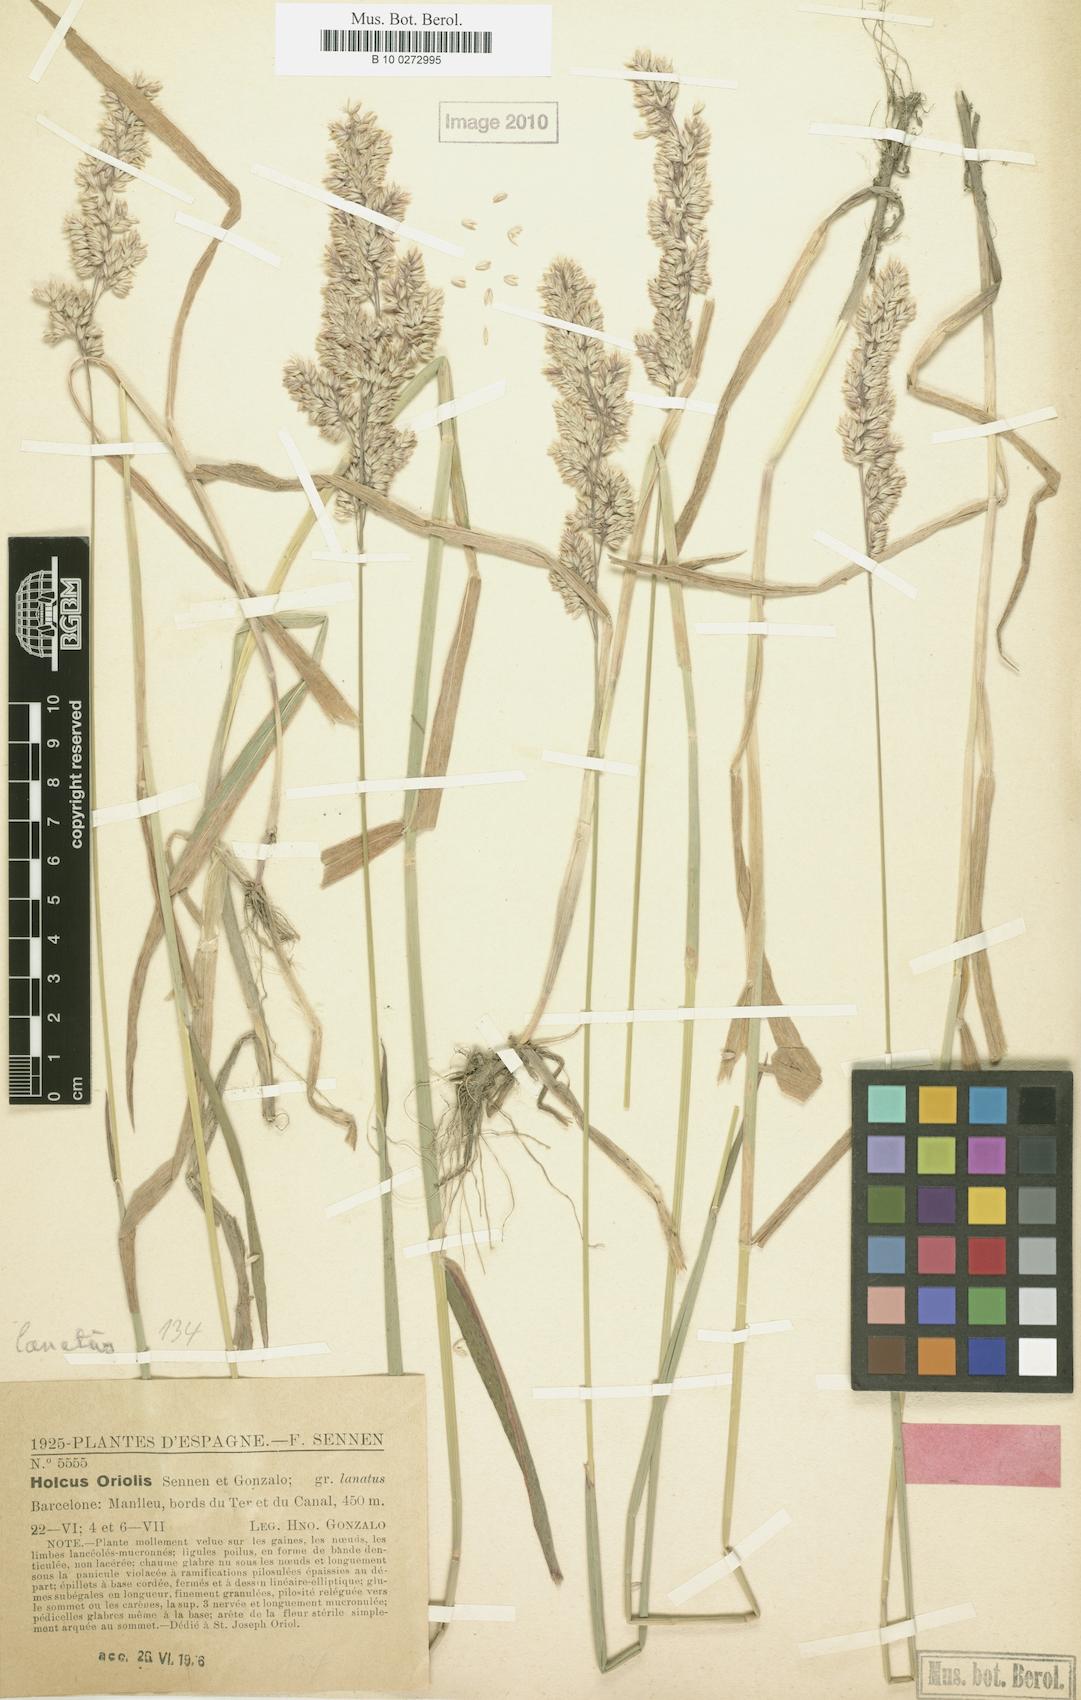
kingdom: Plantae
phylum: Tracheophyta
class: Liliopsida
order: Poales
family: Poaceae
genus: Holcus
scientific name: Holcus lanatus
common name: Yorkshire-fog
